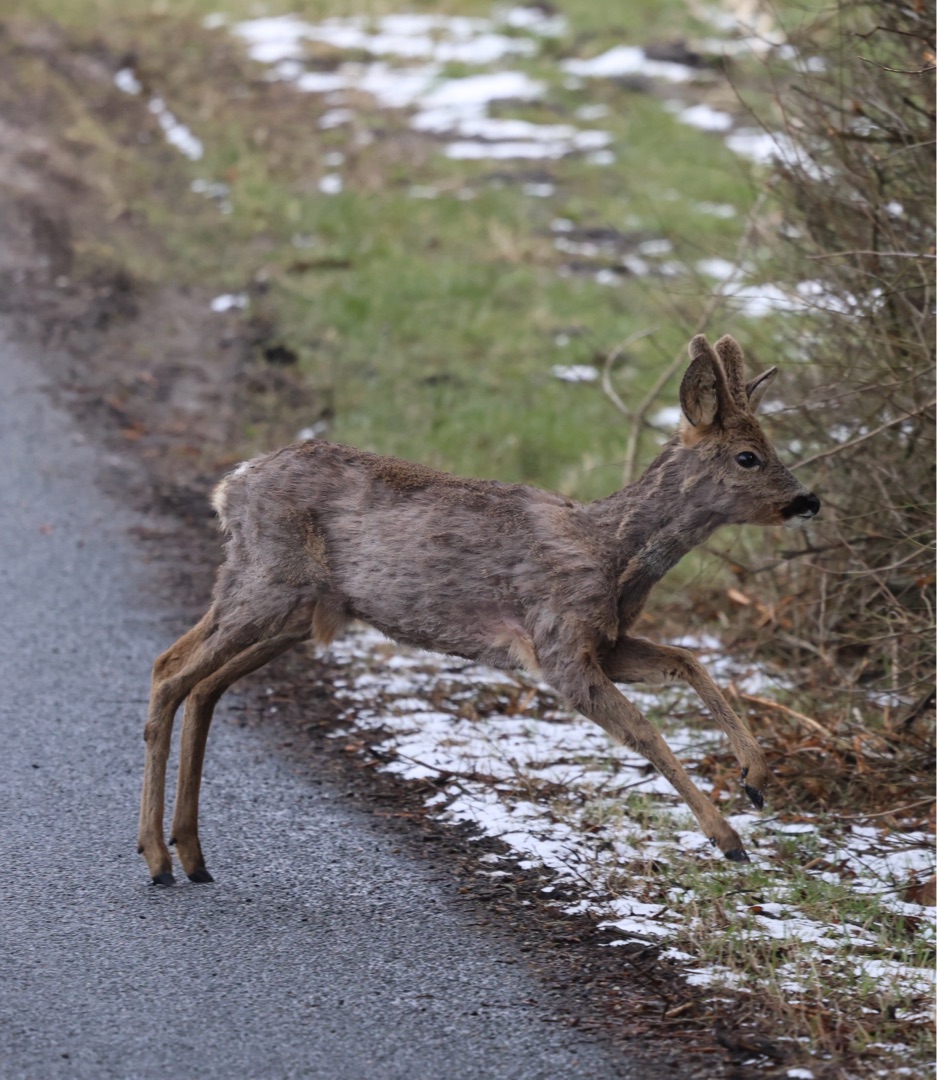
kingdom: Animalia
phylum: Chordata
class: Mammalia
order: Artiodactyla
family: Cervidae
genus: Capreolus
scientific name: Capreolus capreolus
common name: Rådyr
